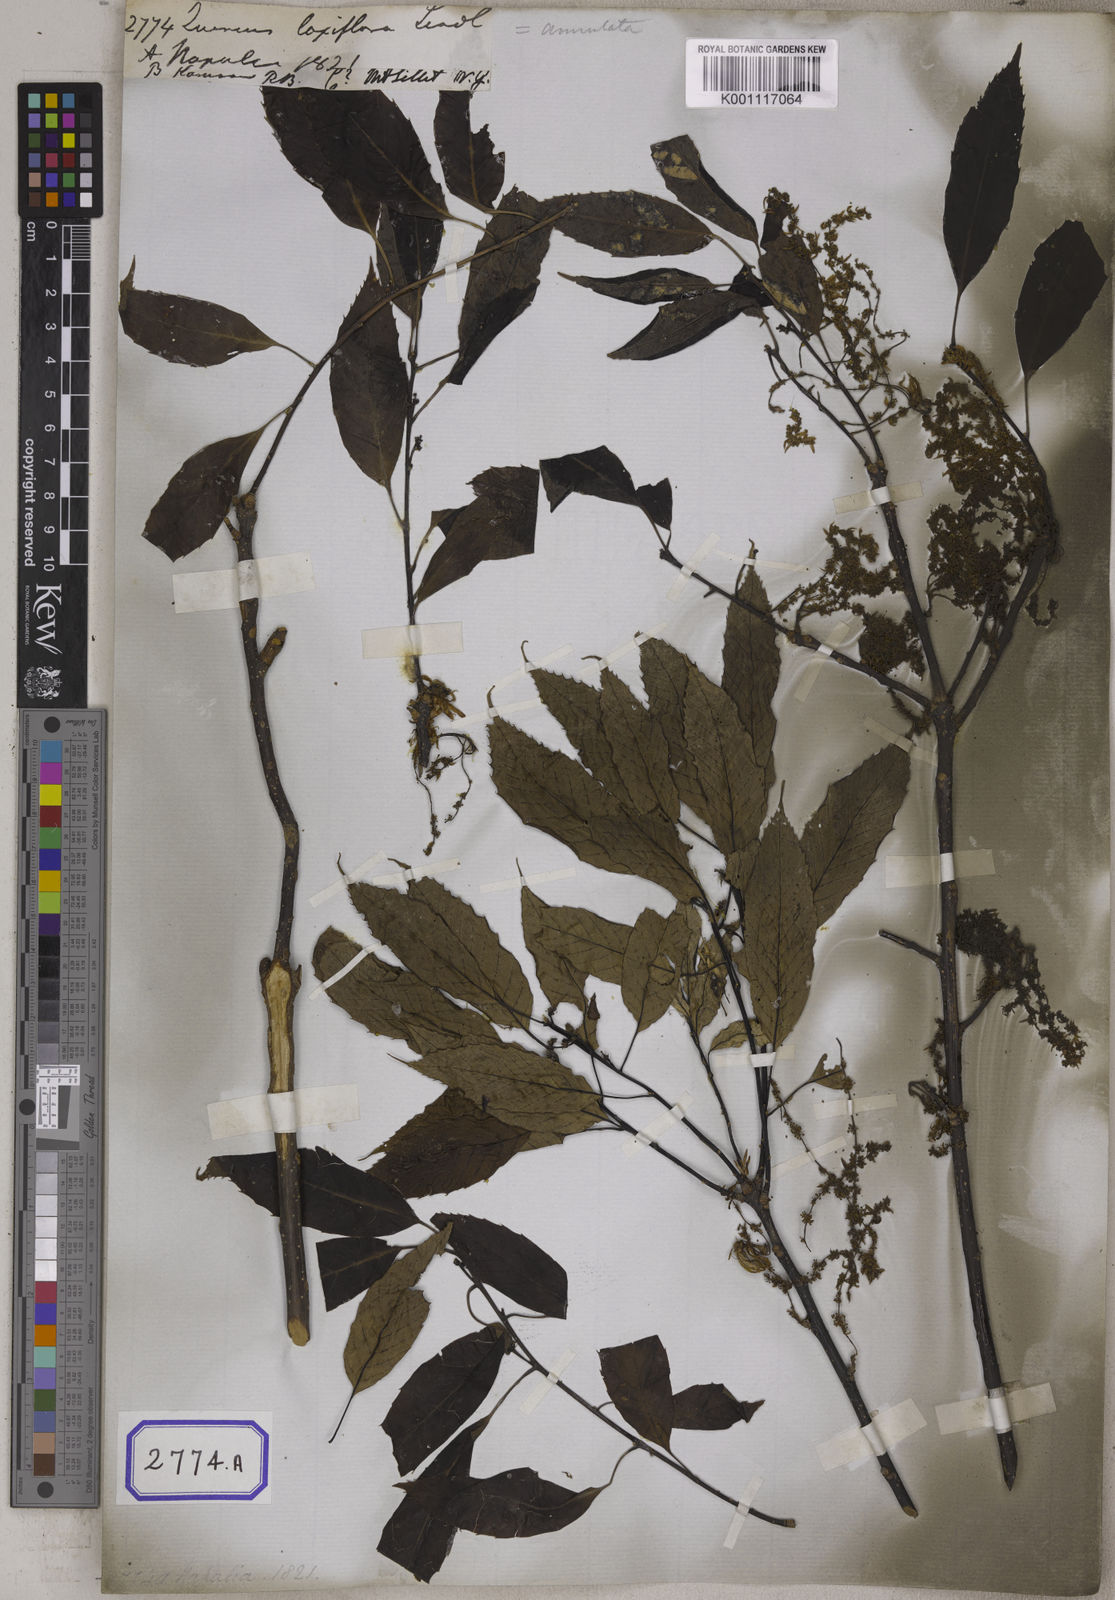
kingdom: Plantae
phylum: Tracheophyta
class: Magnoliopsida
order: Fagales
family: Fagaceae
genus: Quercus
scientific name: Quercus
